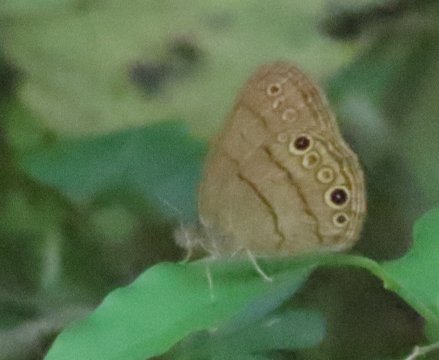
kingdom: Animalia
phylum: Arthropoda
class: Insecta
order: Lepidoptera
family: Nymphalidae
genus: Hermeuptychia
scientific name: Hermeuptychia hermes
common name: Carolina Satyr
